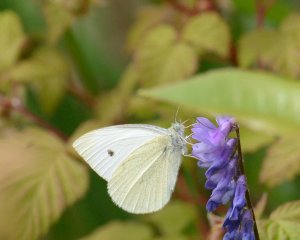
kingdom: Animalia
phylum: Arthropoda
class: Insecta
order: Lepidoptera
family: Pieridae
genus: Pieris
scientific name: Pieris rapae
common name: Cabbage White
